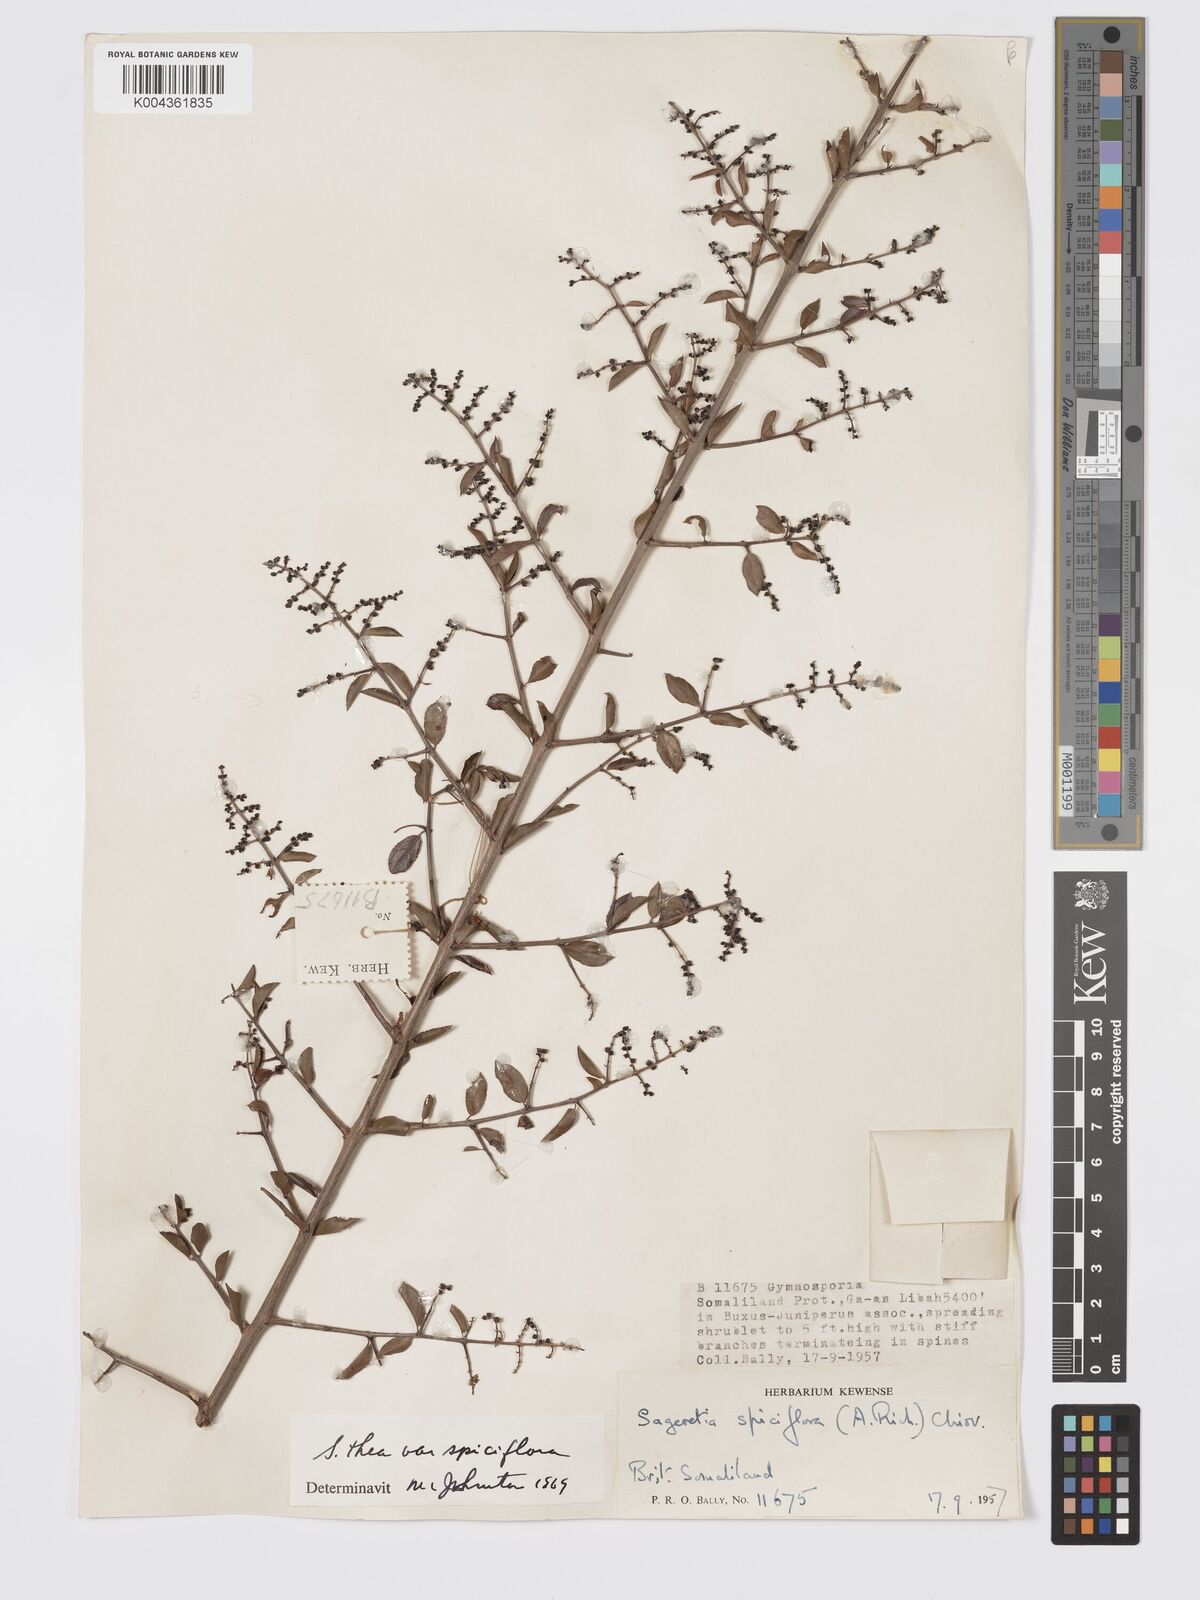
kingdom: Plantae
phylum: Tracheophyta
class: Magnoliopsida
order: Rosales
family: Rhamnaceae
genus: Sageretia
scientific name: Sageretia thea
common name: Pauper's-tea
